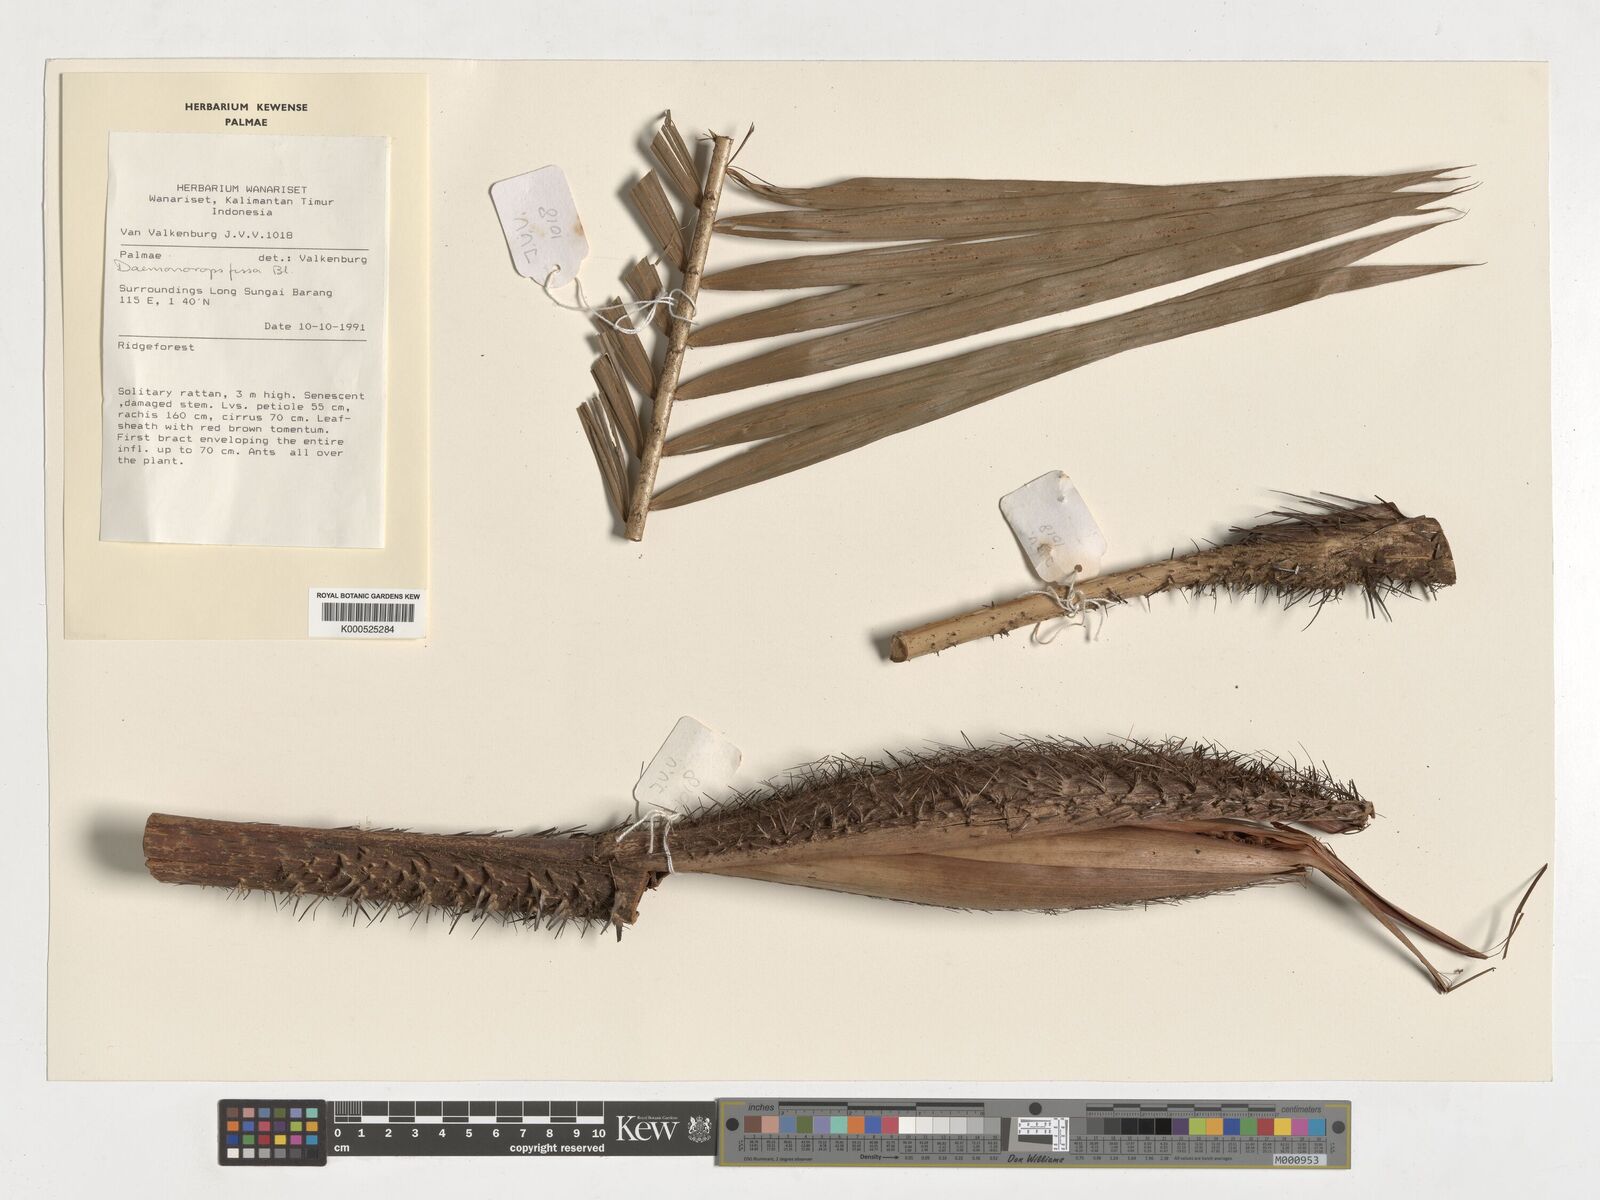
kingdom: Plantae
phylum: Tracheophyta
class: Liliopsida
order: Arecales
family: Arecaceae
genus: Calamus
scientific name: Calamus melanochaetes
